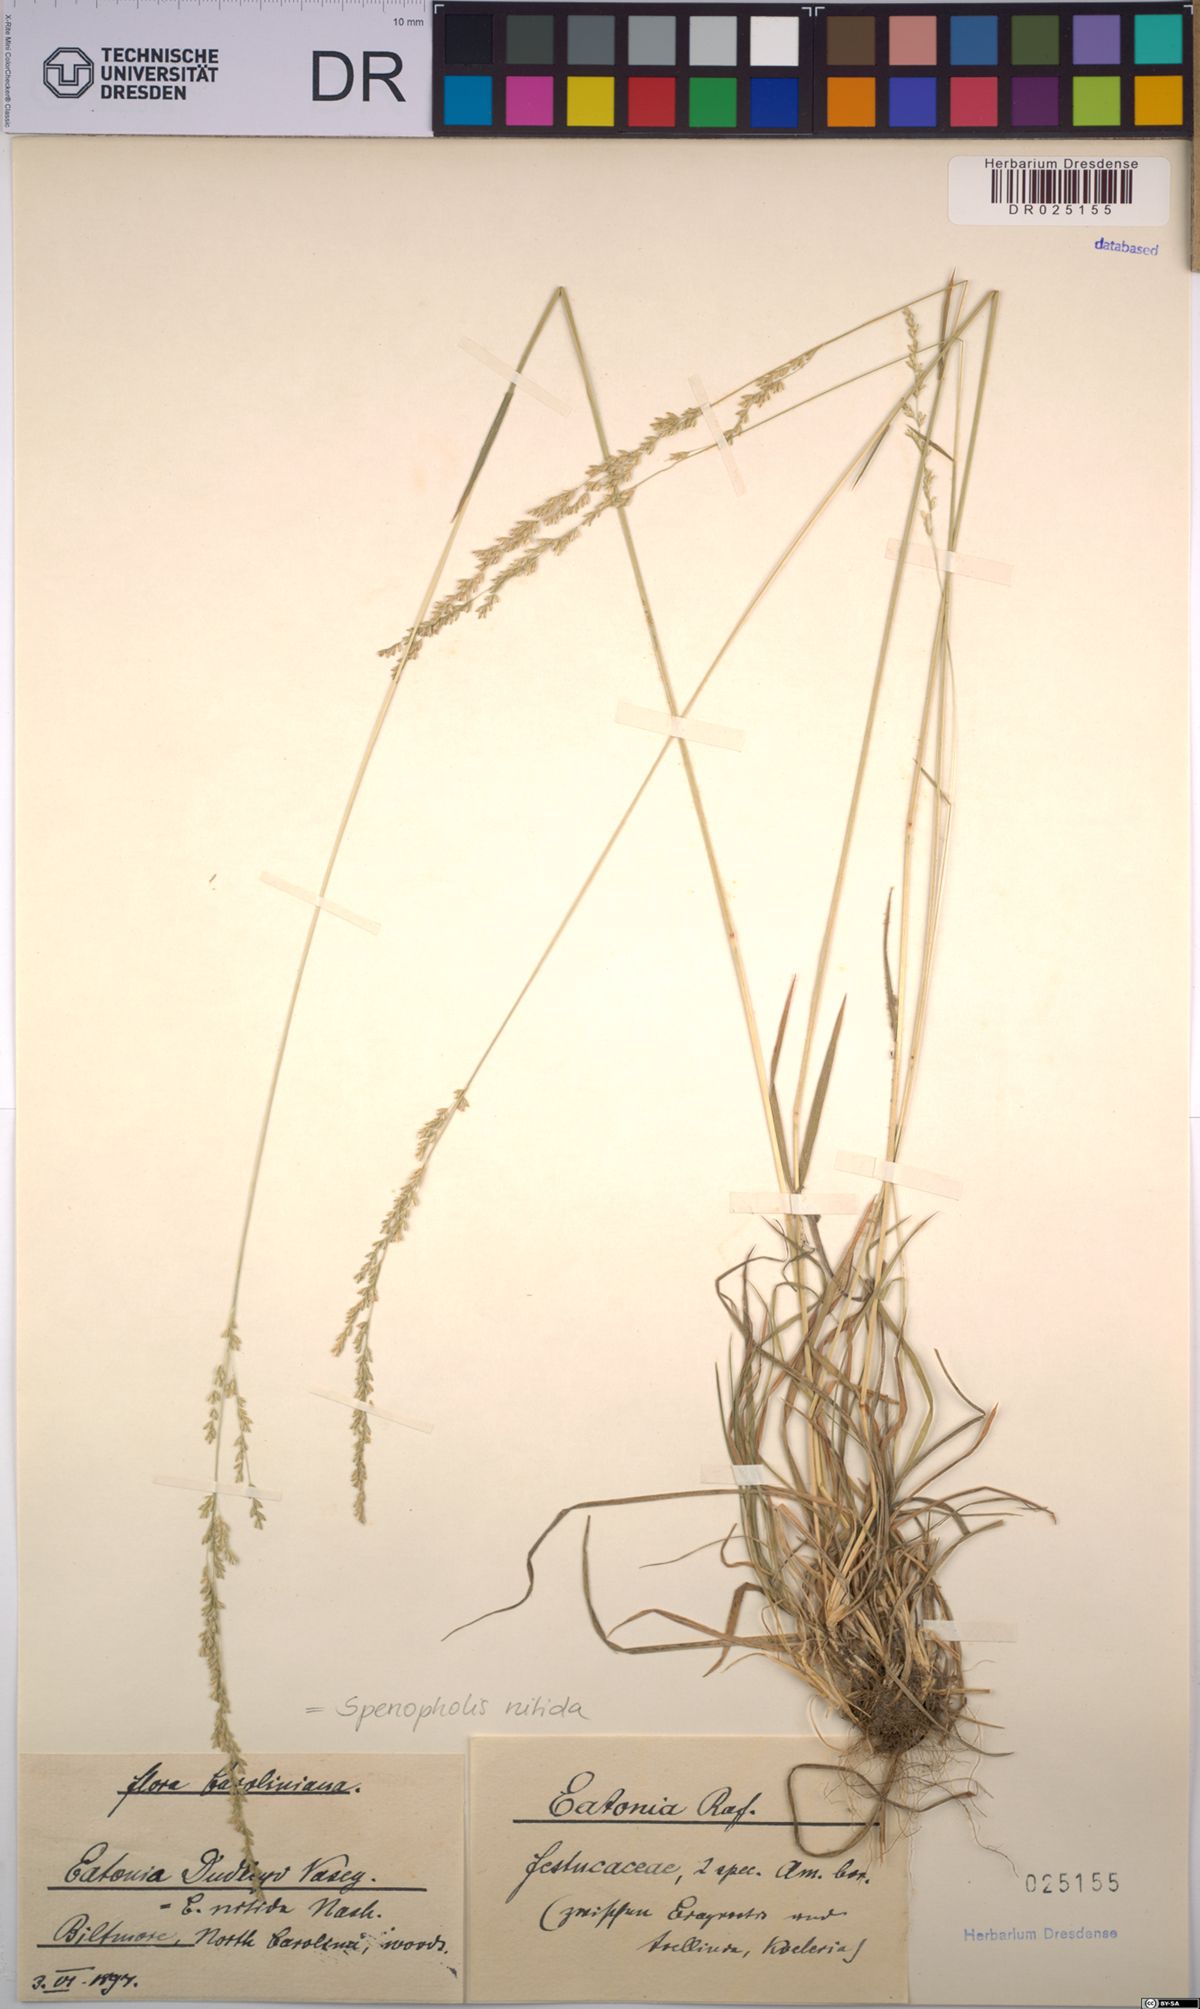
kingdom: Plantae
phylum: Tracheophyta
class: Liliopsida
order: Poales
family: Poaceae
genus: Sphenopholis
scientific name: Sphenopholis nitida
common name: Shiny wedgegrass
